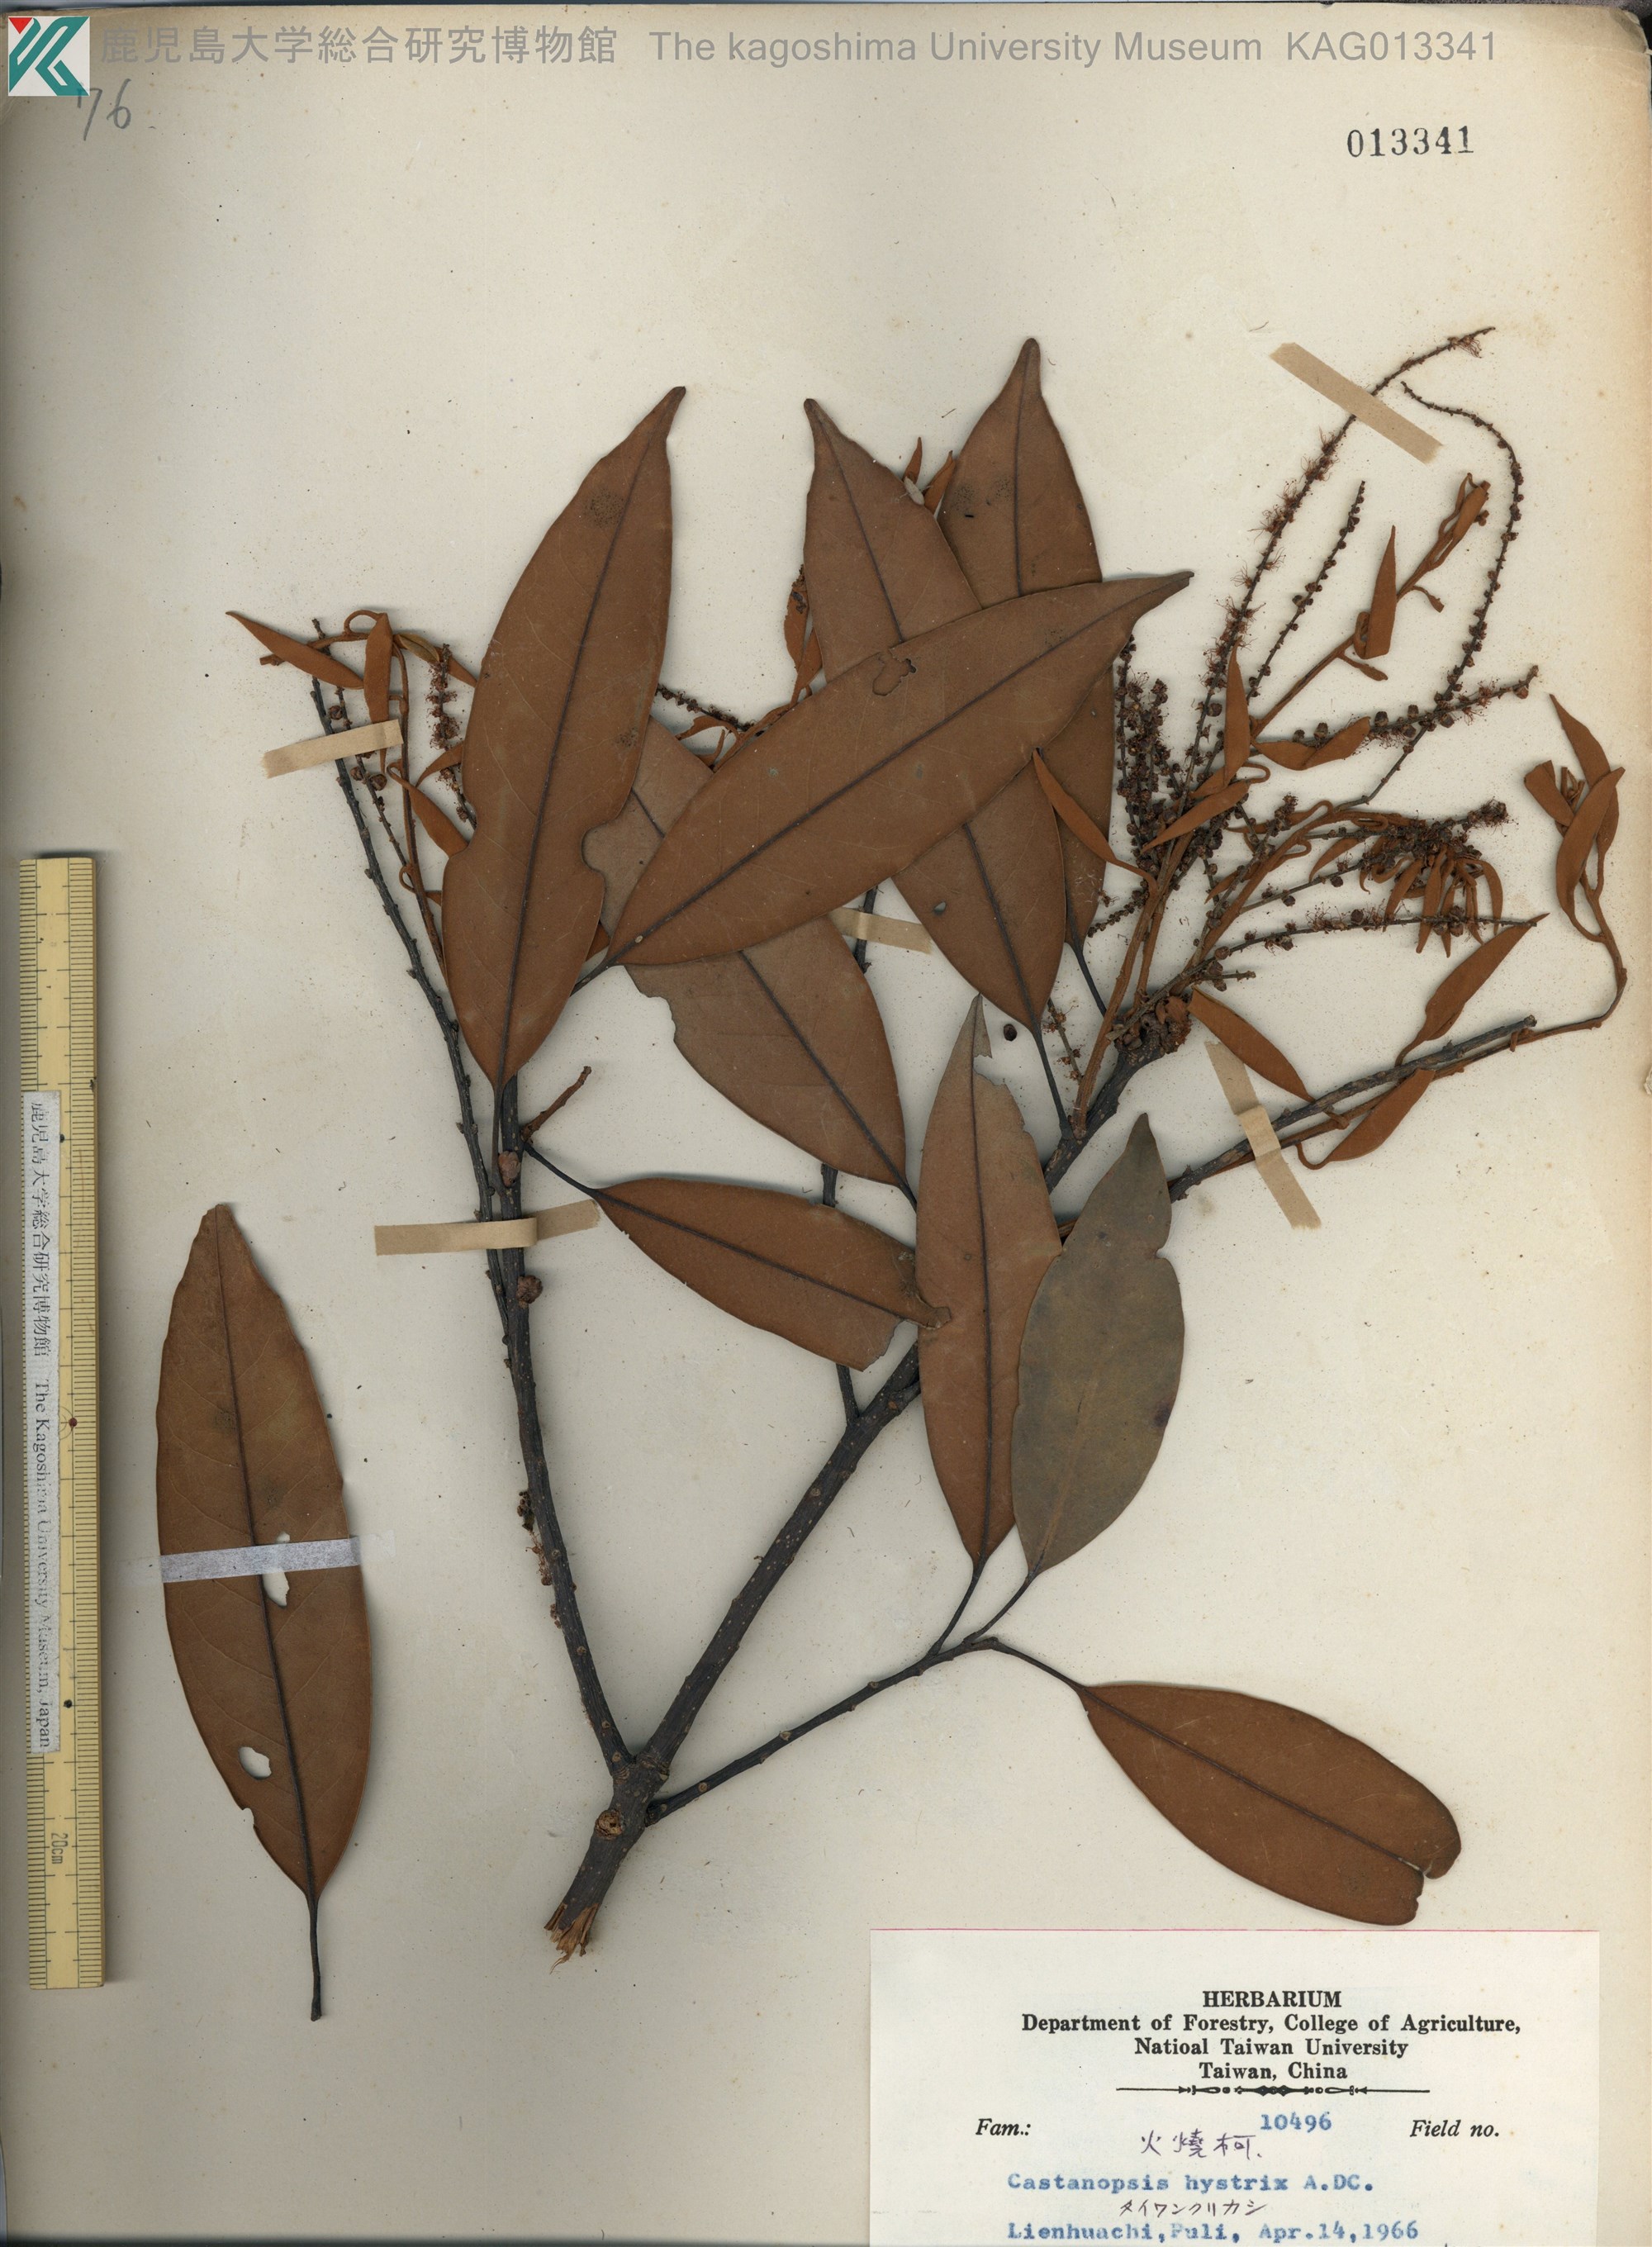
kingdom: Plantae
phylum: Tracheophyta
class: Magnoliopsida
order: Fagales
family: Fagaceae
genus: Castanopsis
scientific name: Castanopsis hystrix
